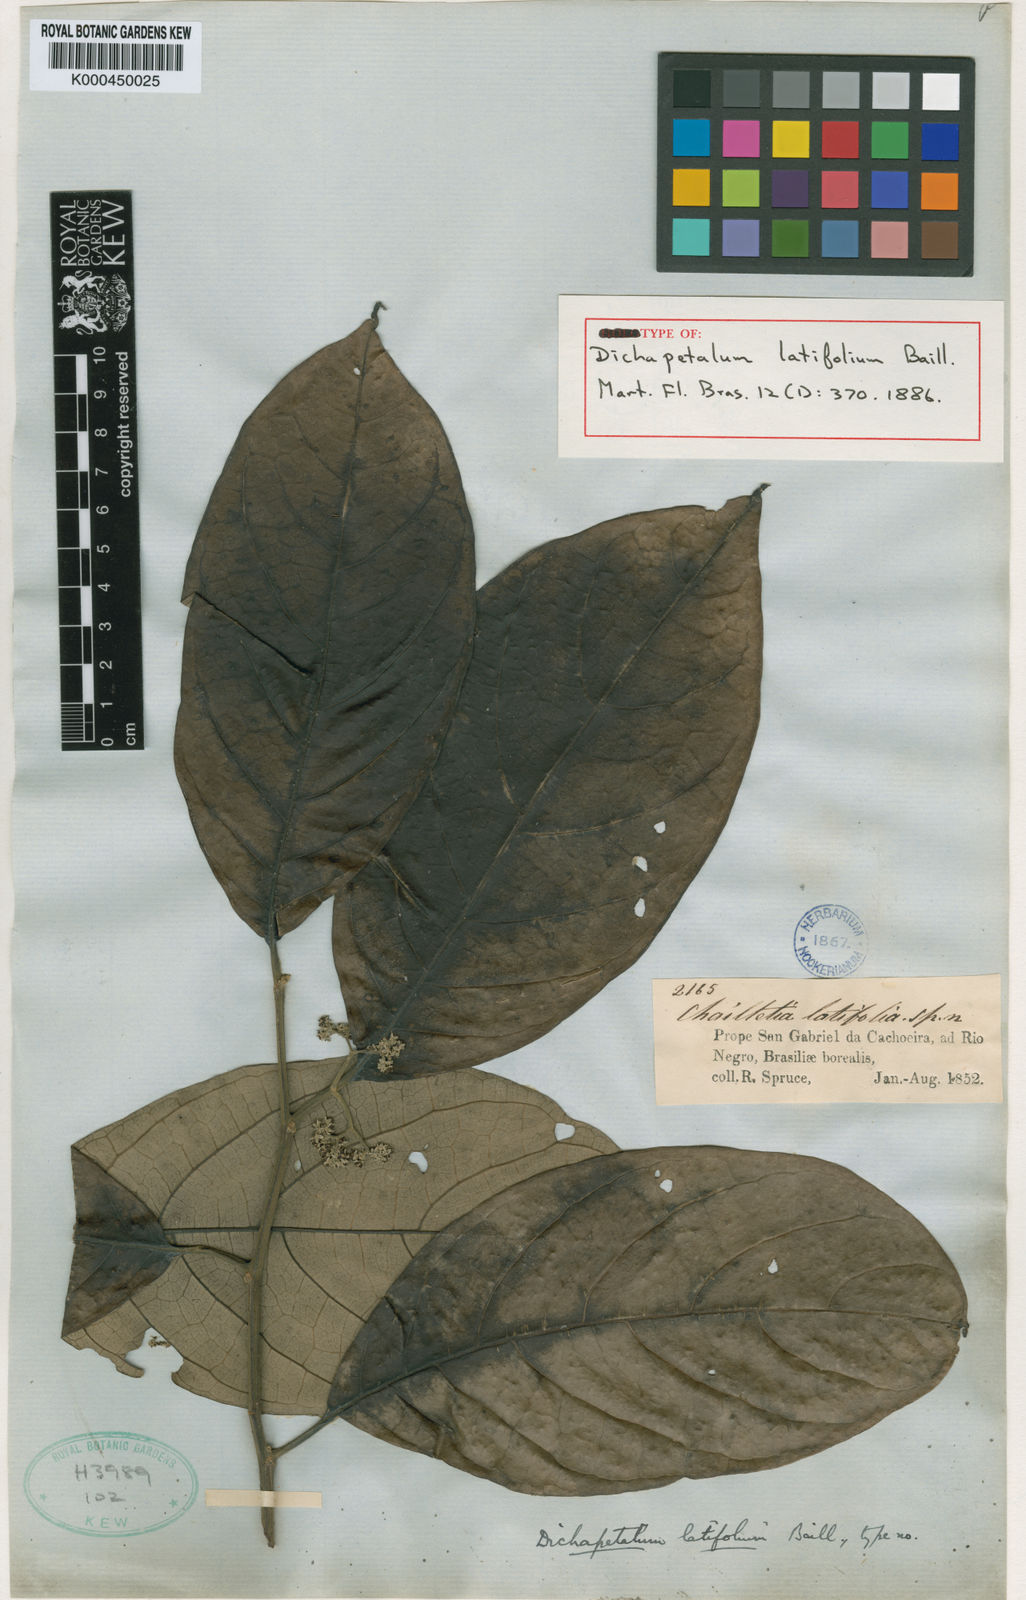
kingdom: Plantae
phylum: Tracheophyta
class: Magnoliopsida
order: Malpighiales
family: Dichapetalaceae
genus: Dichapetalum
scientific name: Dichapetalum latifolium
